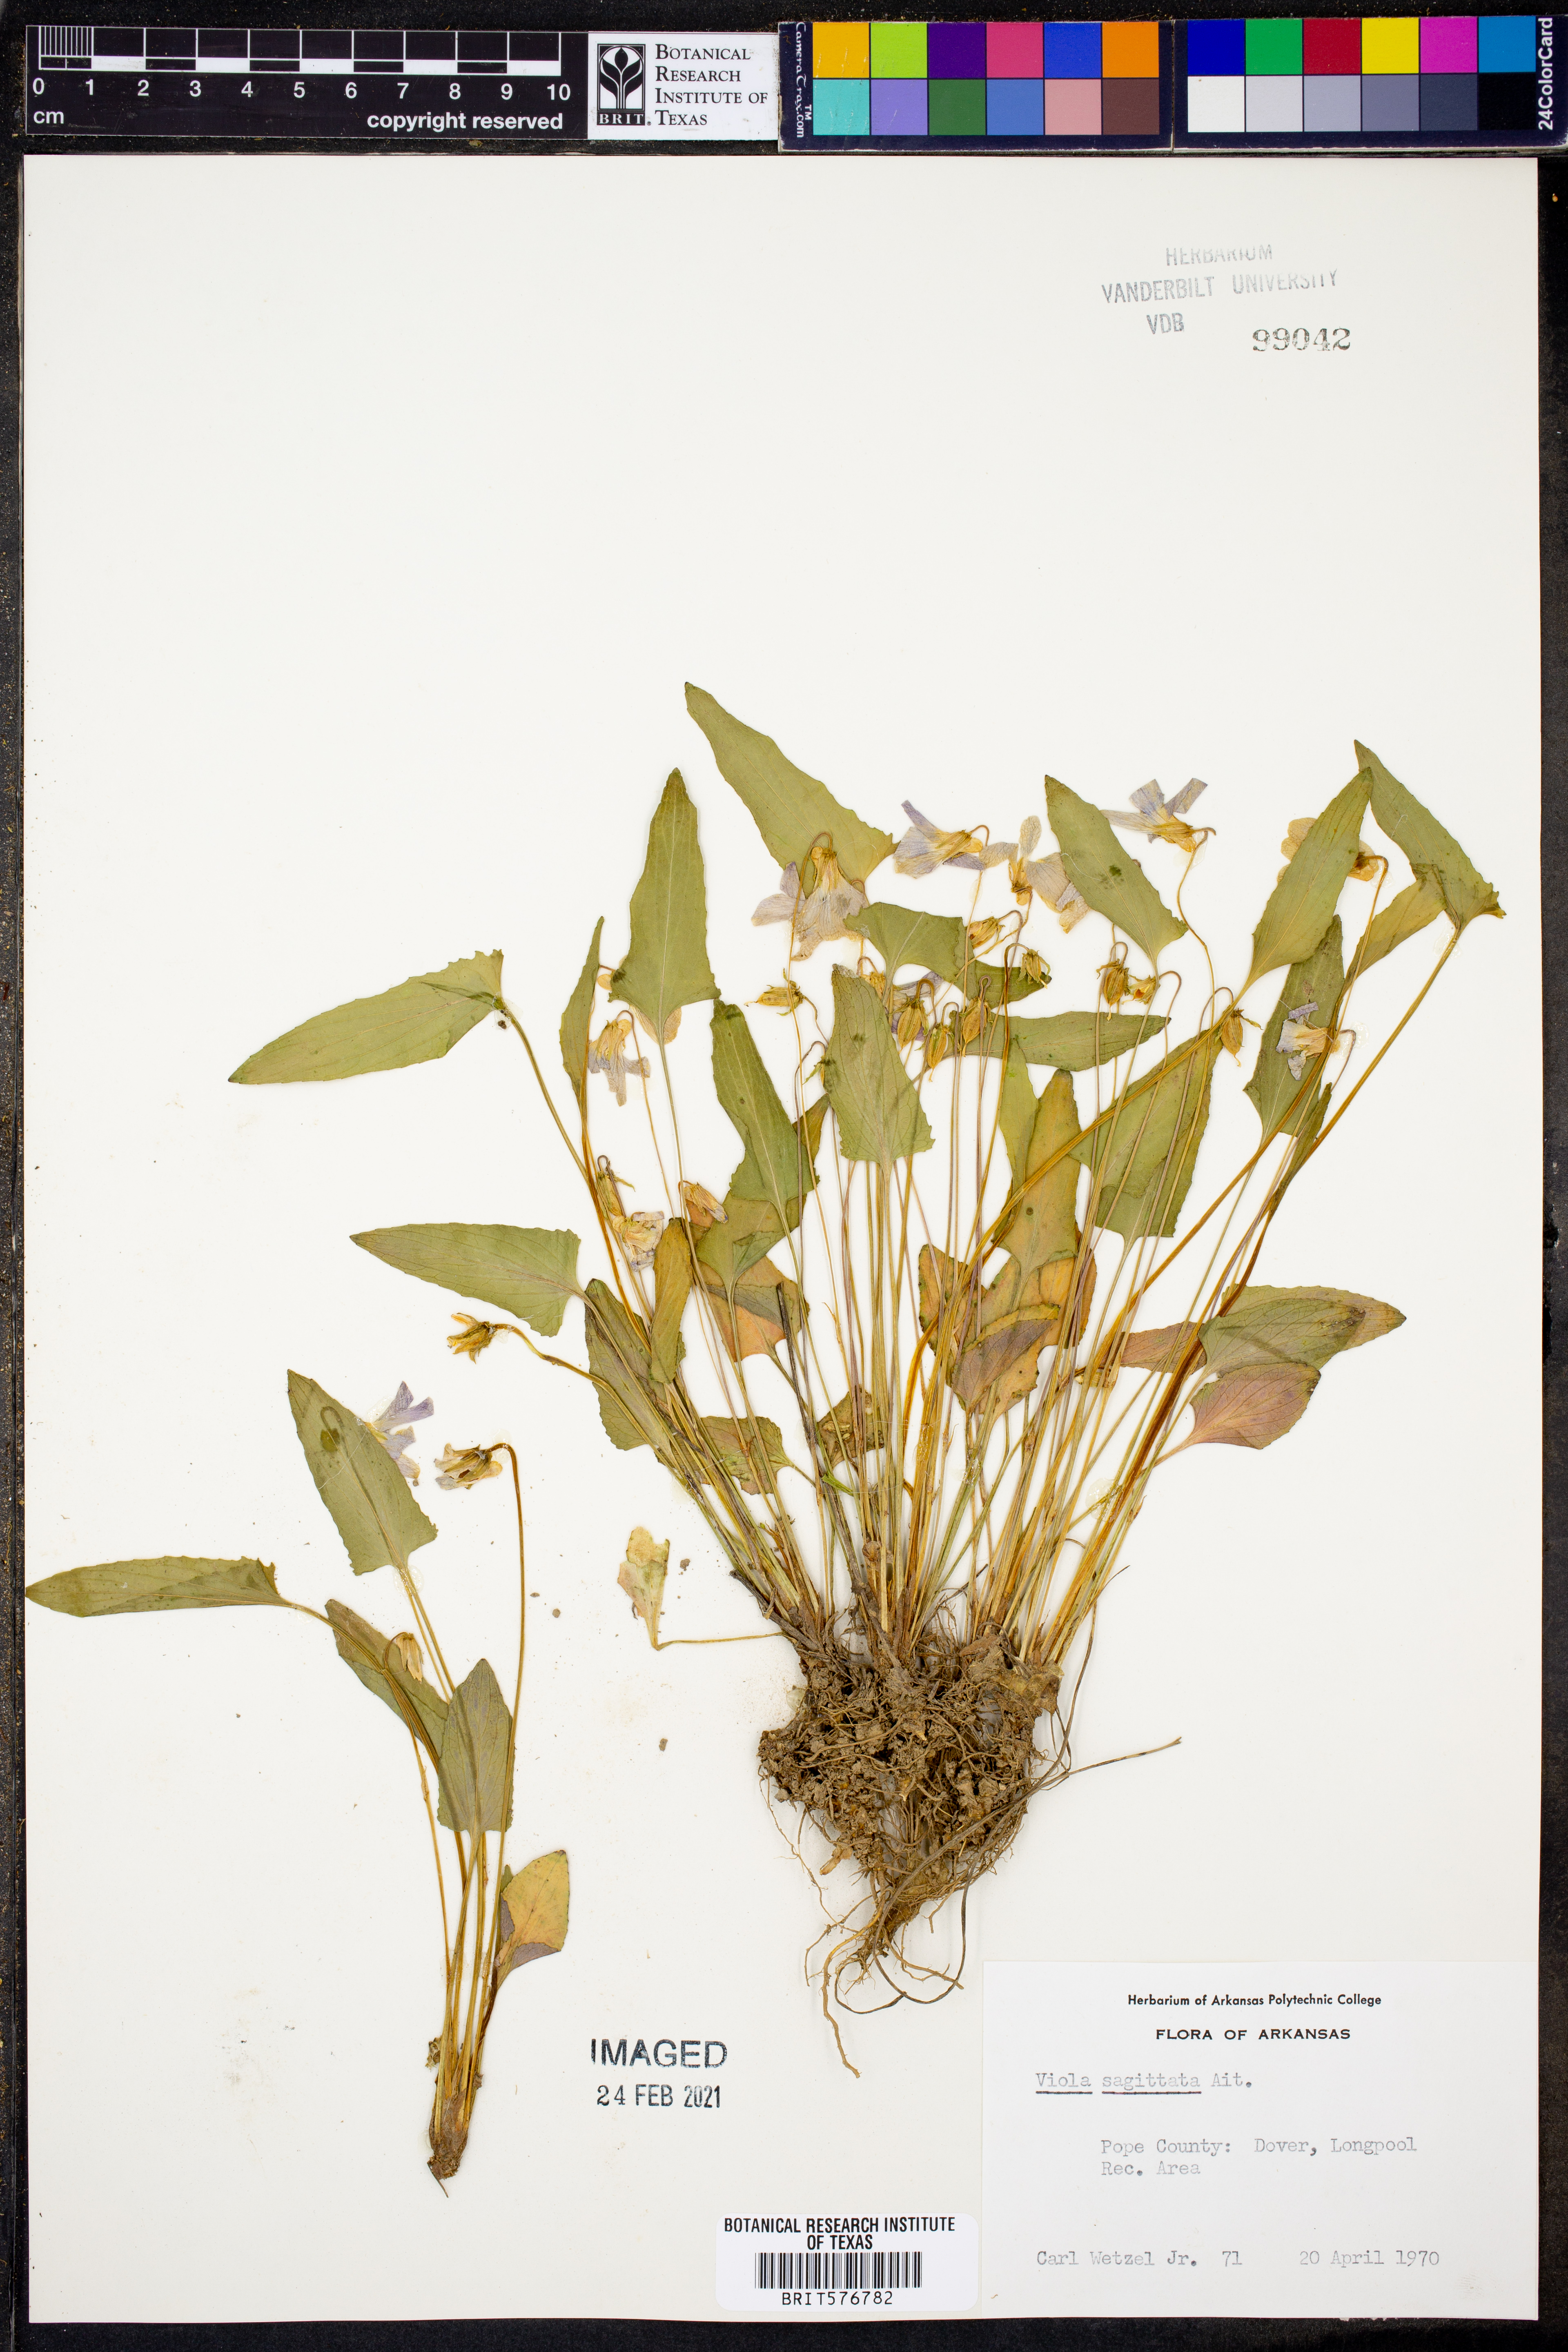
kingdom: Plantae
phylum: Tracheophyta
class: Magnoliopsida
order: Malpighiales
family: Violaceae
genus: Viola
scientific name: Viola sagittata
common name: Arrowhead violet
